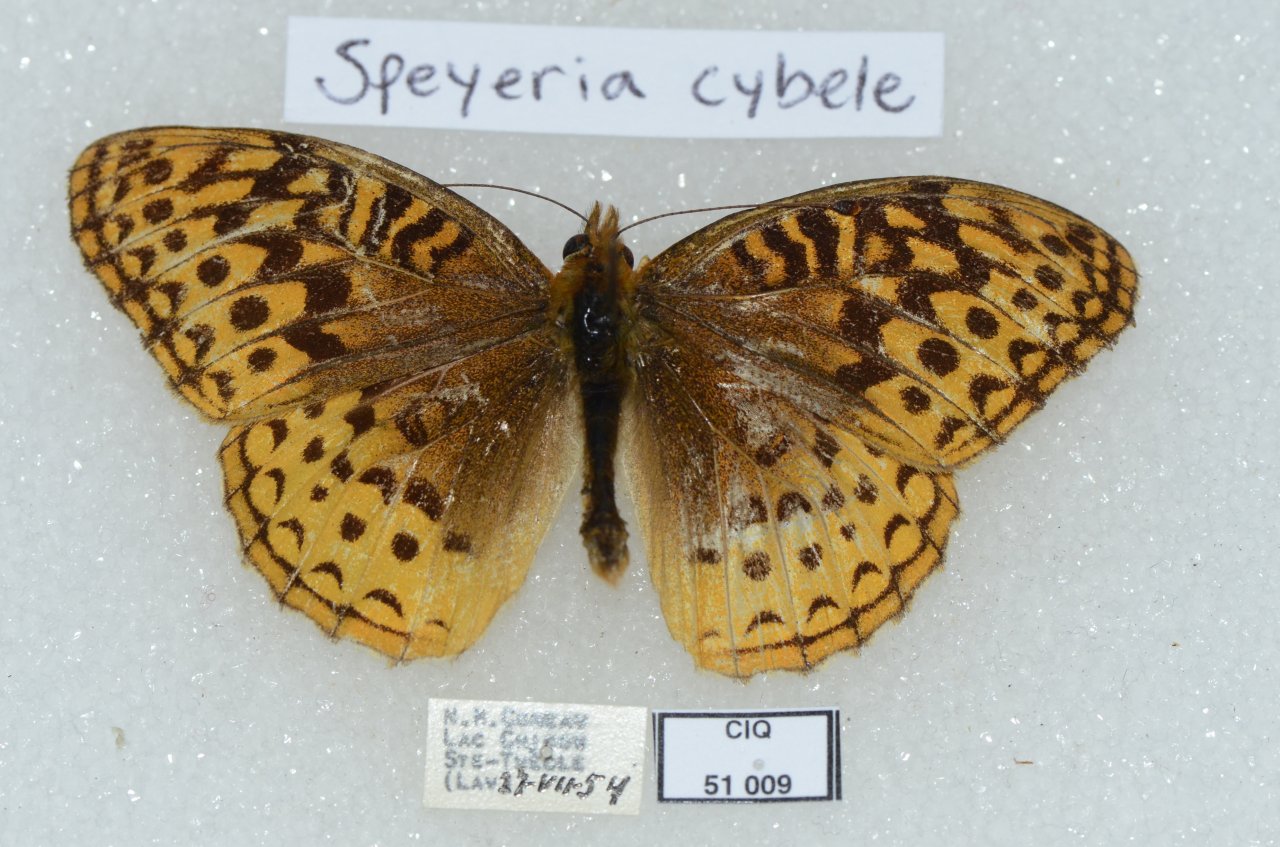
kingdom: Animalia
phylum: Arthropoda
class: Insecta
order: Lepidoptera
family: Nymphalidae
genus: Speyeria
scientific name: Speyeria cybele
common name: Great Spangled Fritillary
